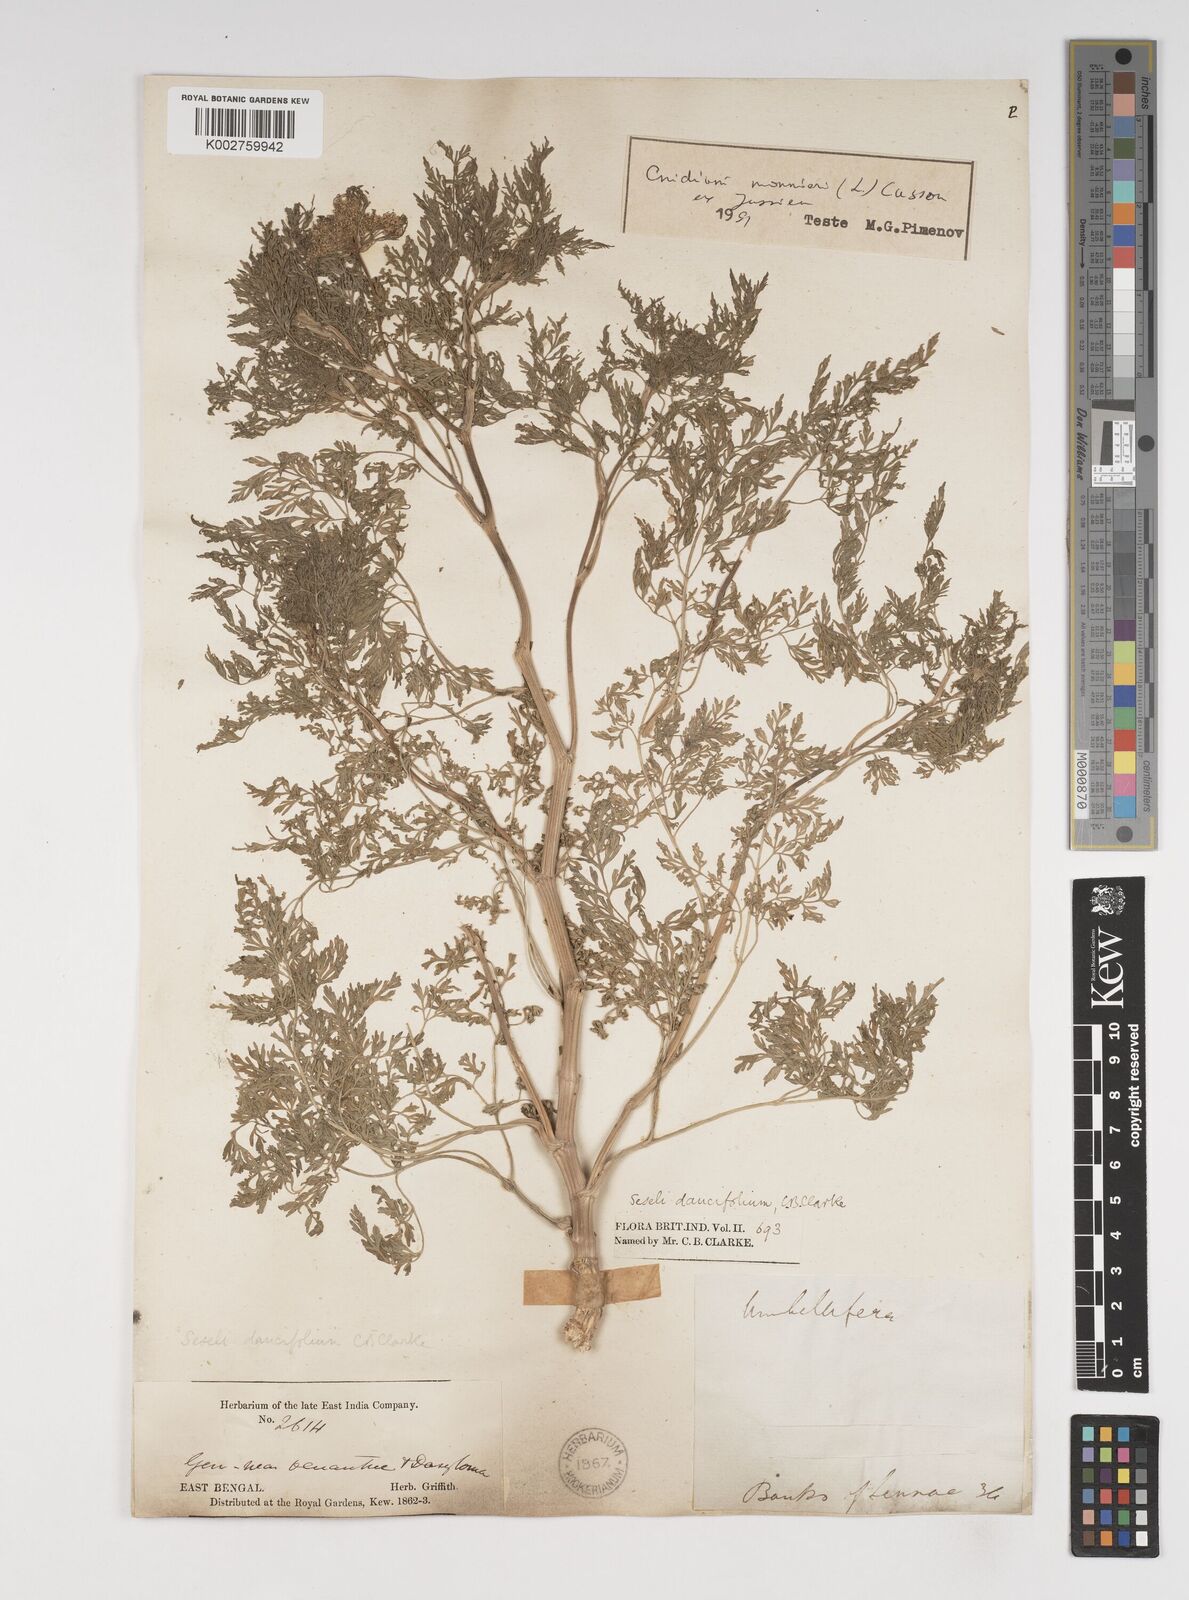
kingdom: Plantae
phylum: Tracheophyta
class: Magnoliopsida
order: Apiales
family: Apiaceae
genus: Cnidium
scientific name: Cnidium monnieri
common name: Monnier's snowparsley
